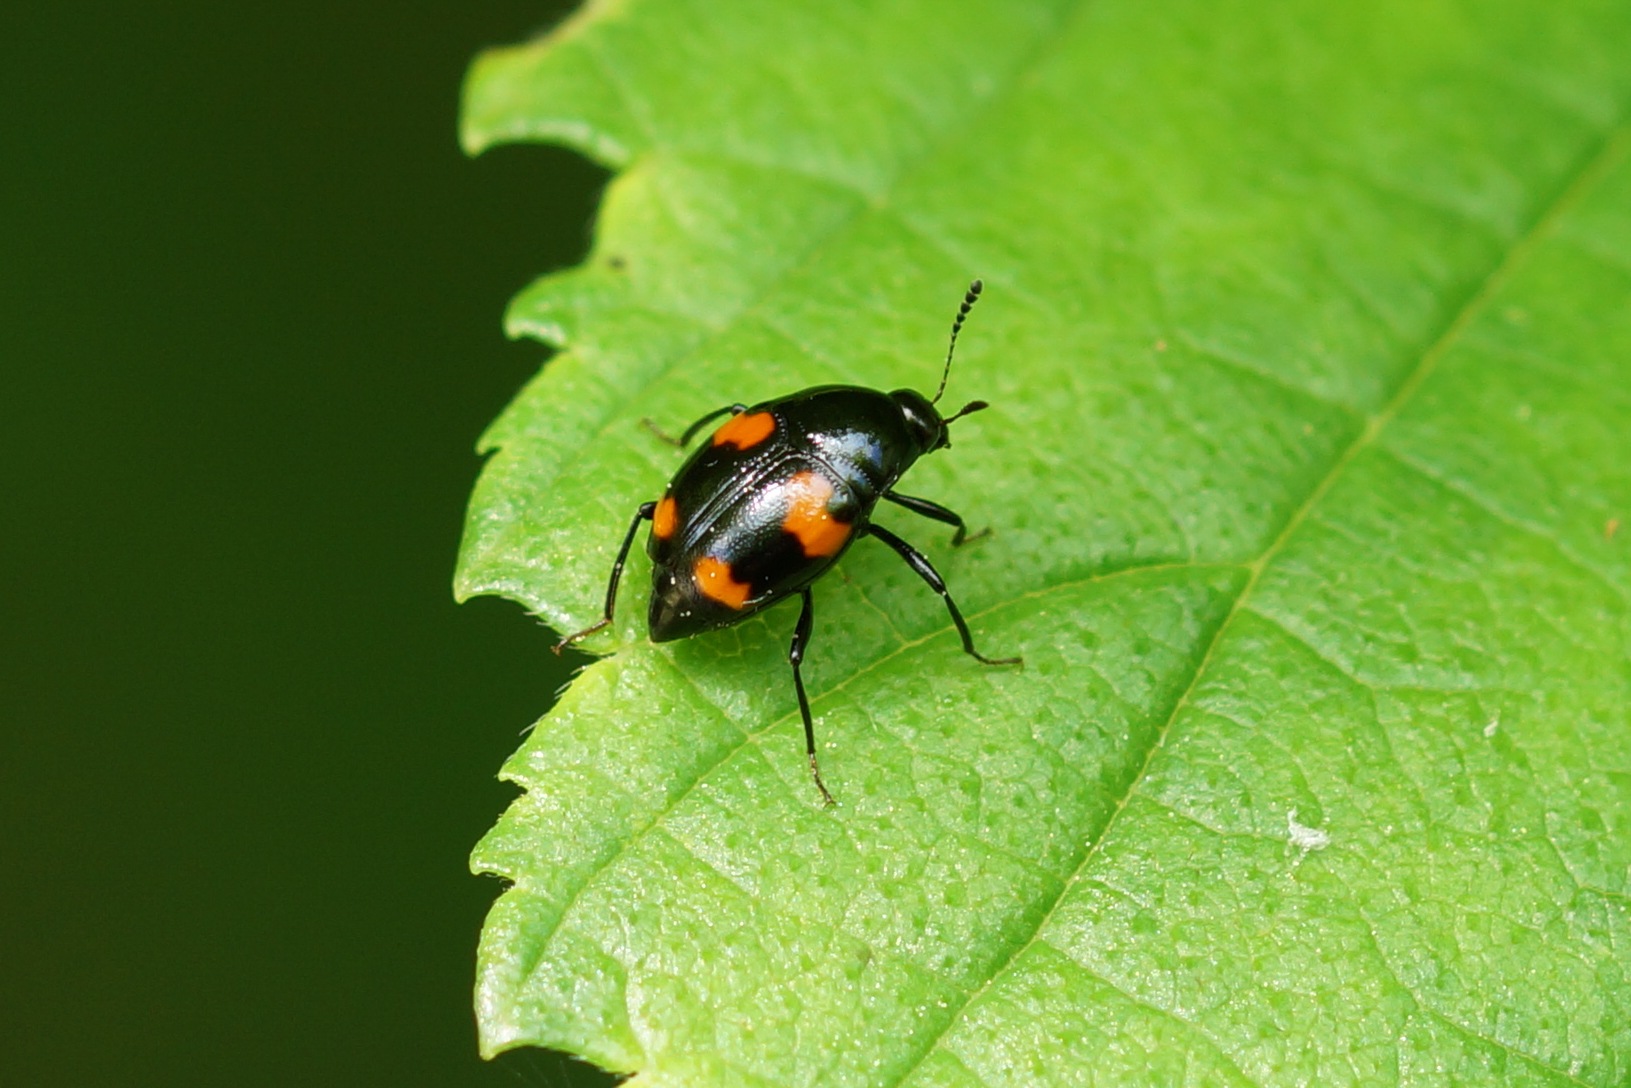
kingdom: Animalia
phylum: Arthropoda
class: Insecta
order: Coleoptera
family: Staphylinidae
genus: Scaphidium
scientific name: Scaphidium quadrimaculatum
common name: Dråberovbille
